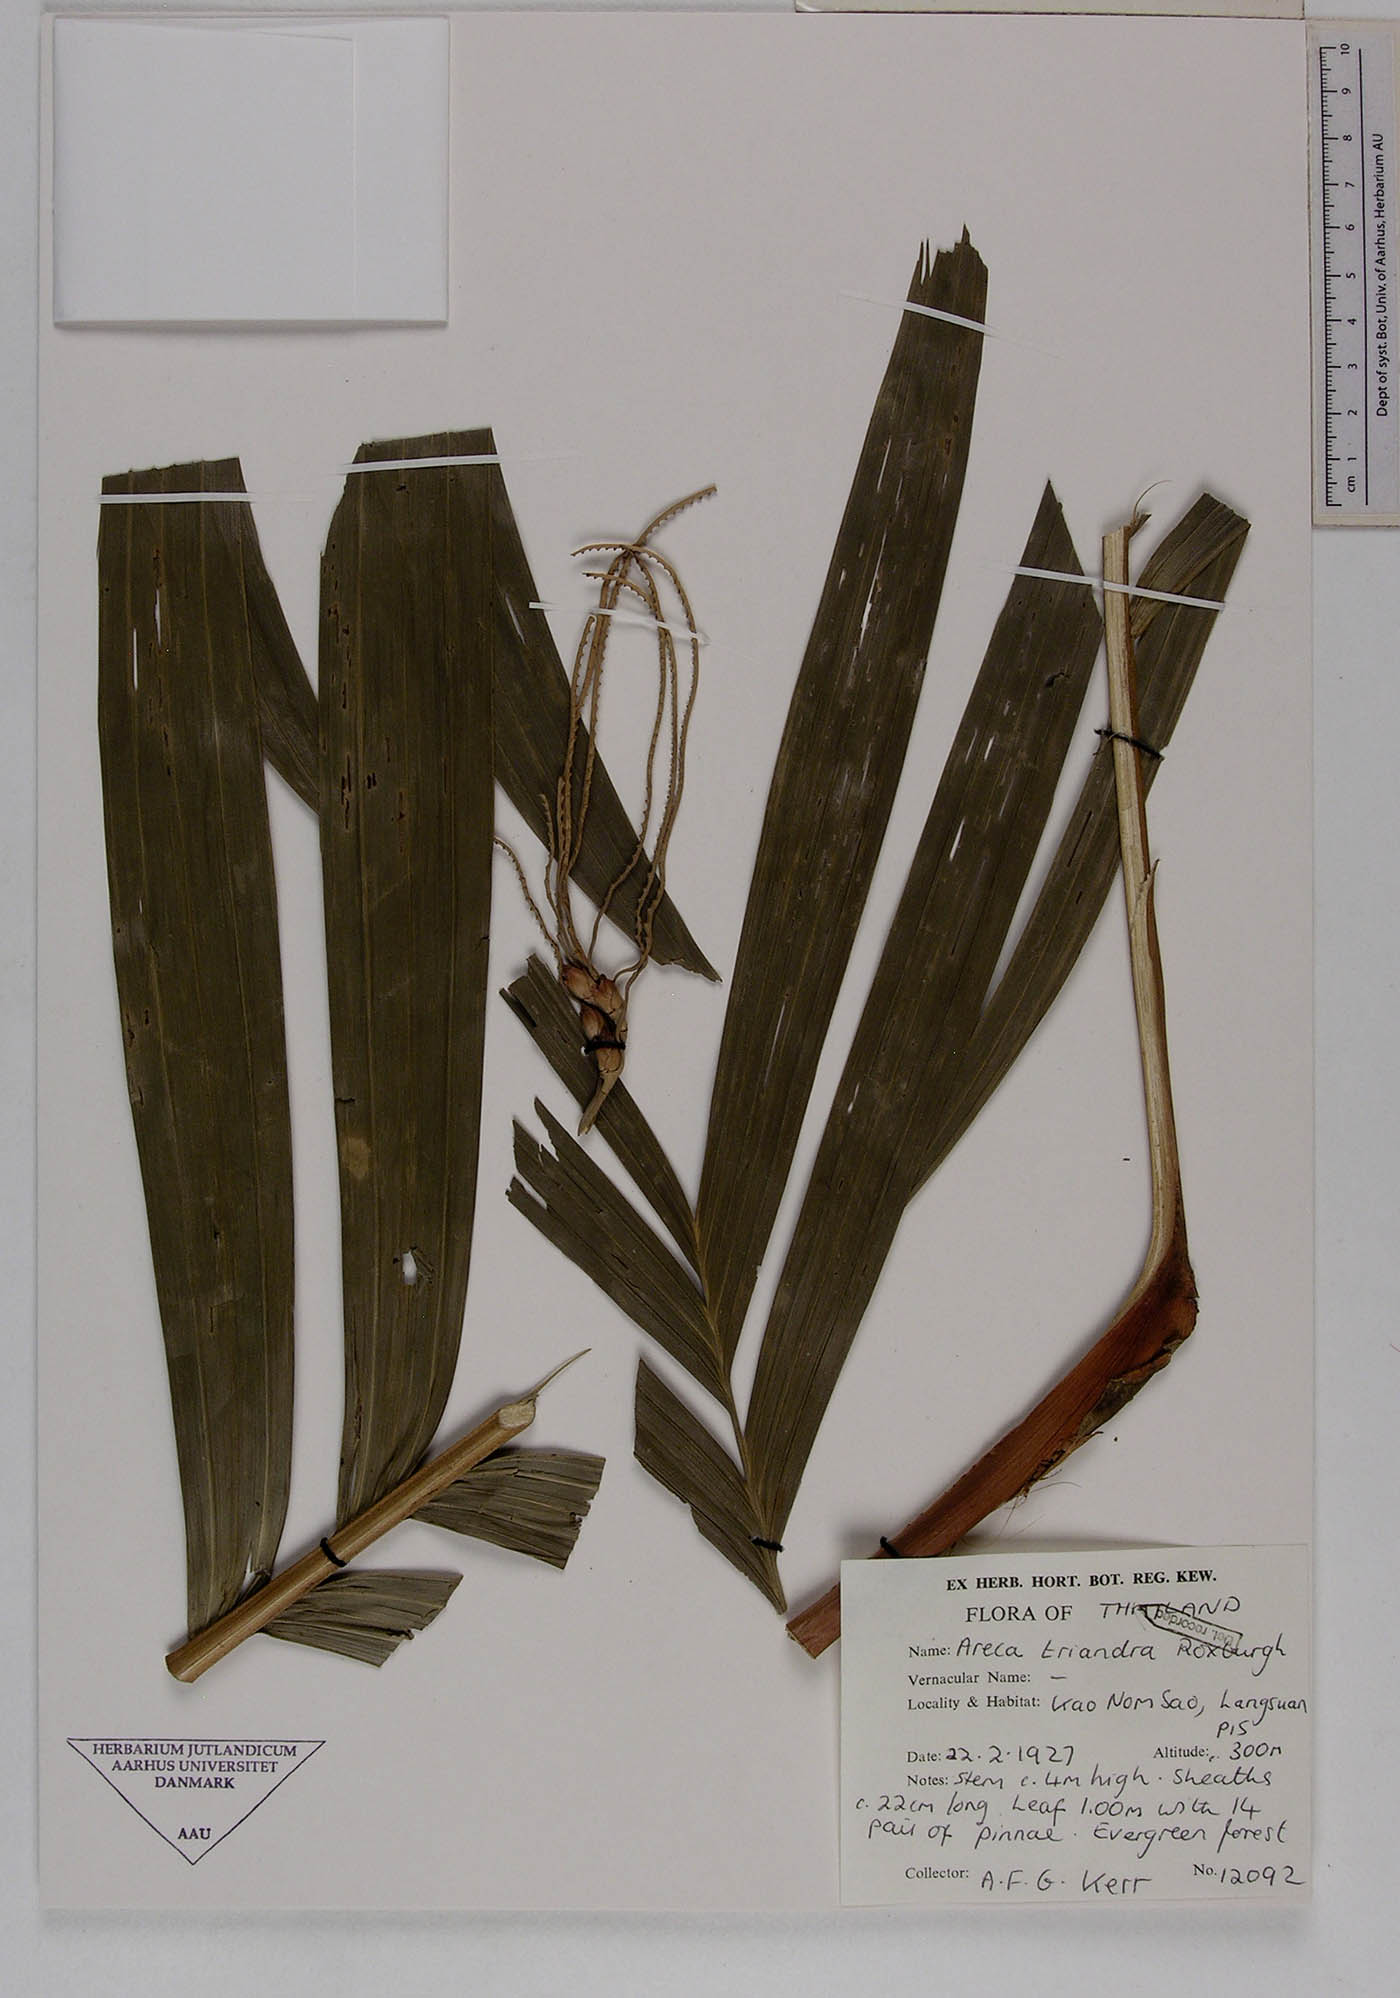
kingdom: Plantae
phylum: Tracheophyta
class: Liliopsida
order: Arecales
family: Arecaceae
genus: Areca
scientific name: Areca triandra
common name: Australian areca palm
